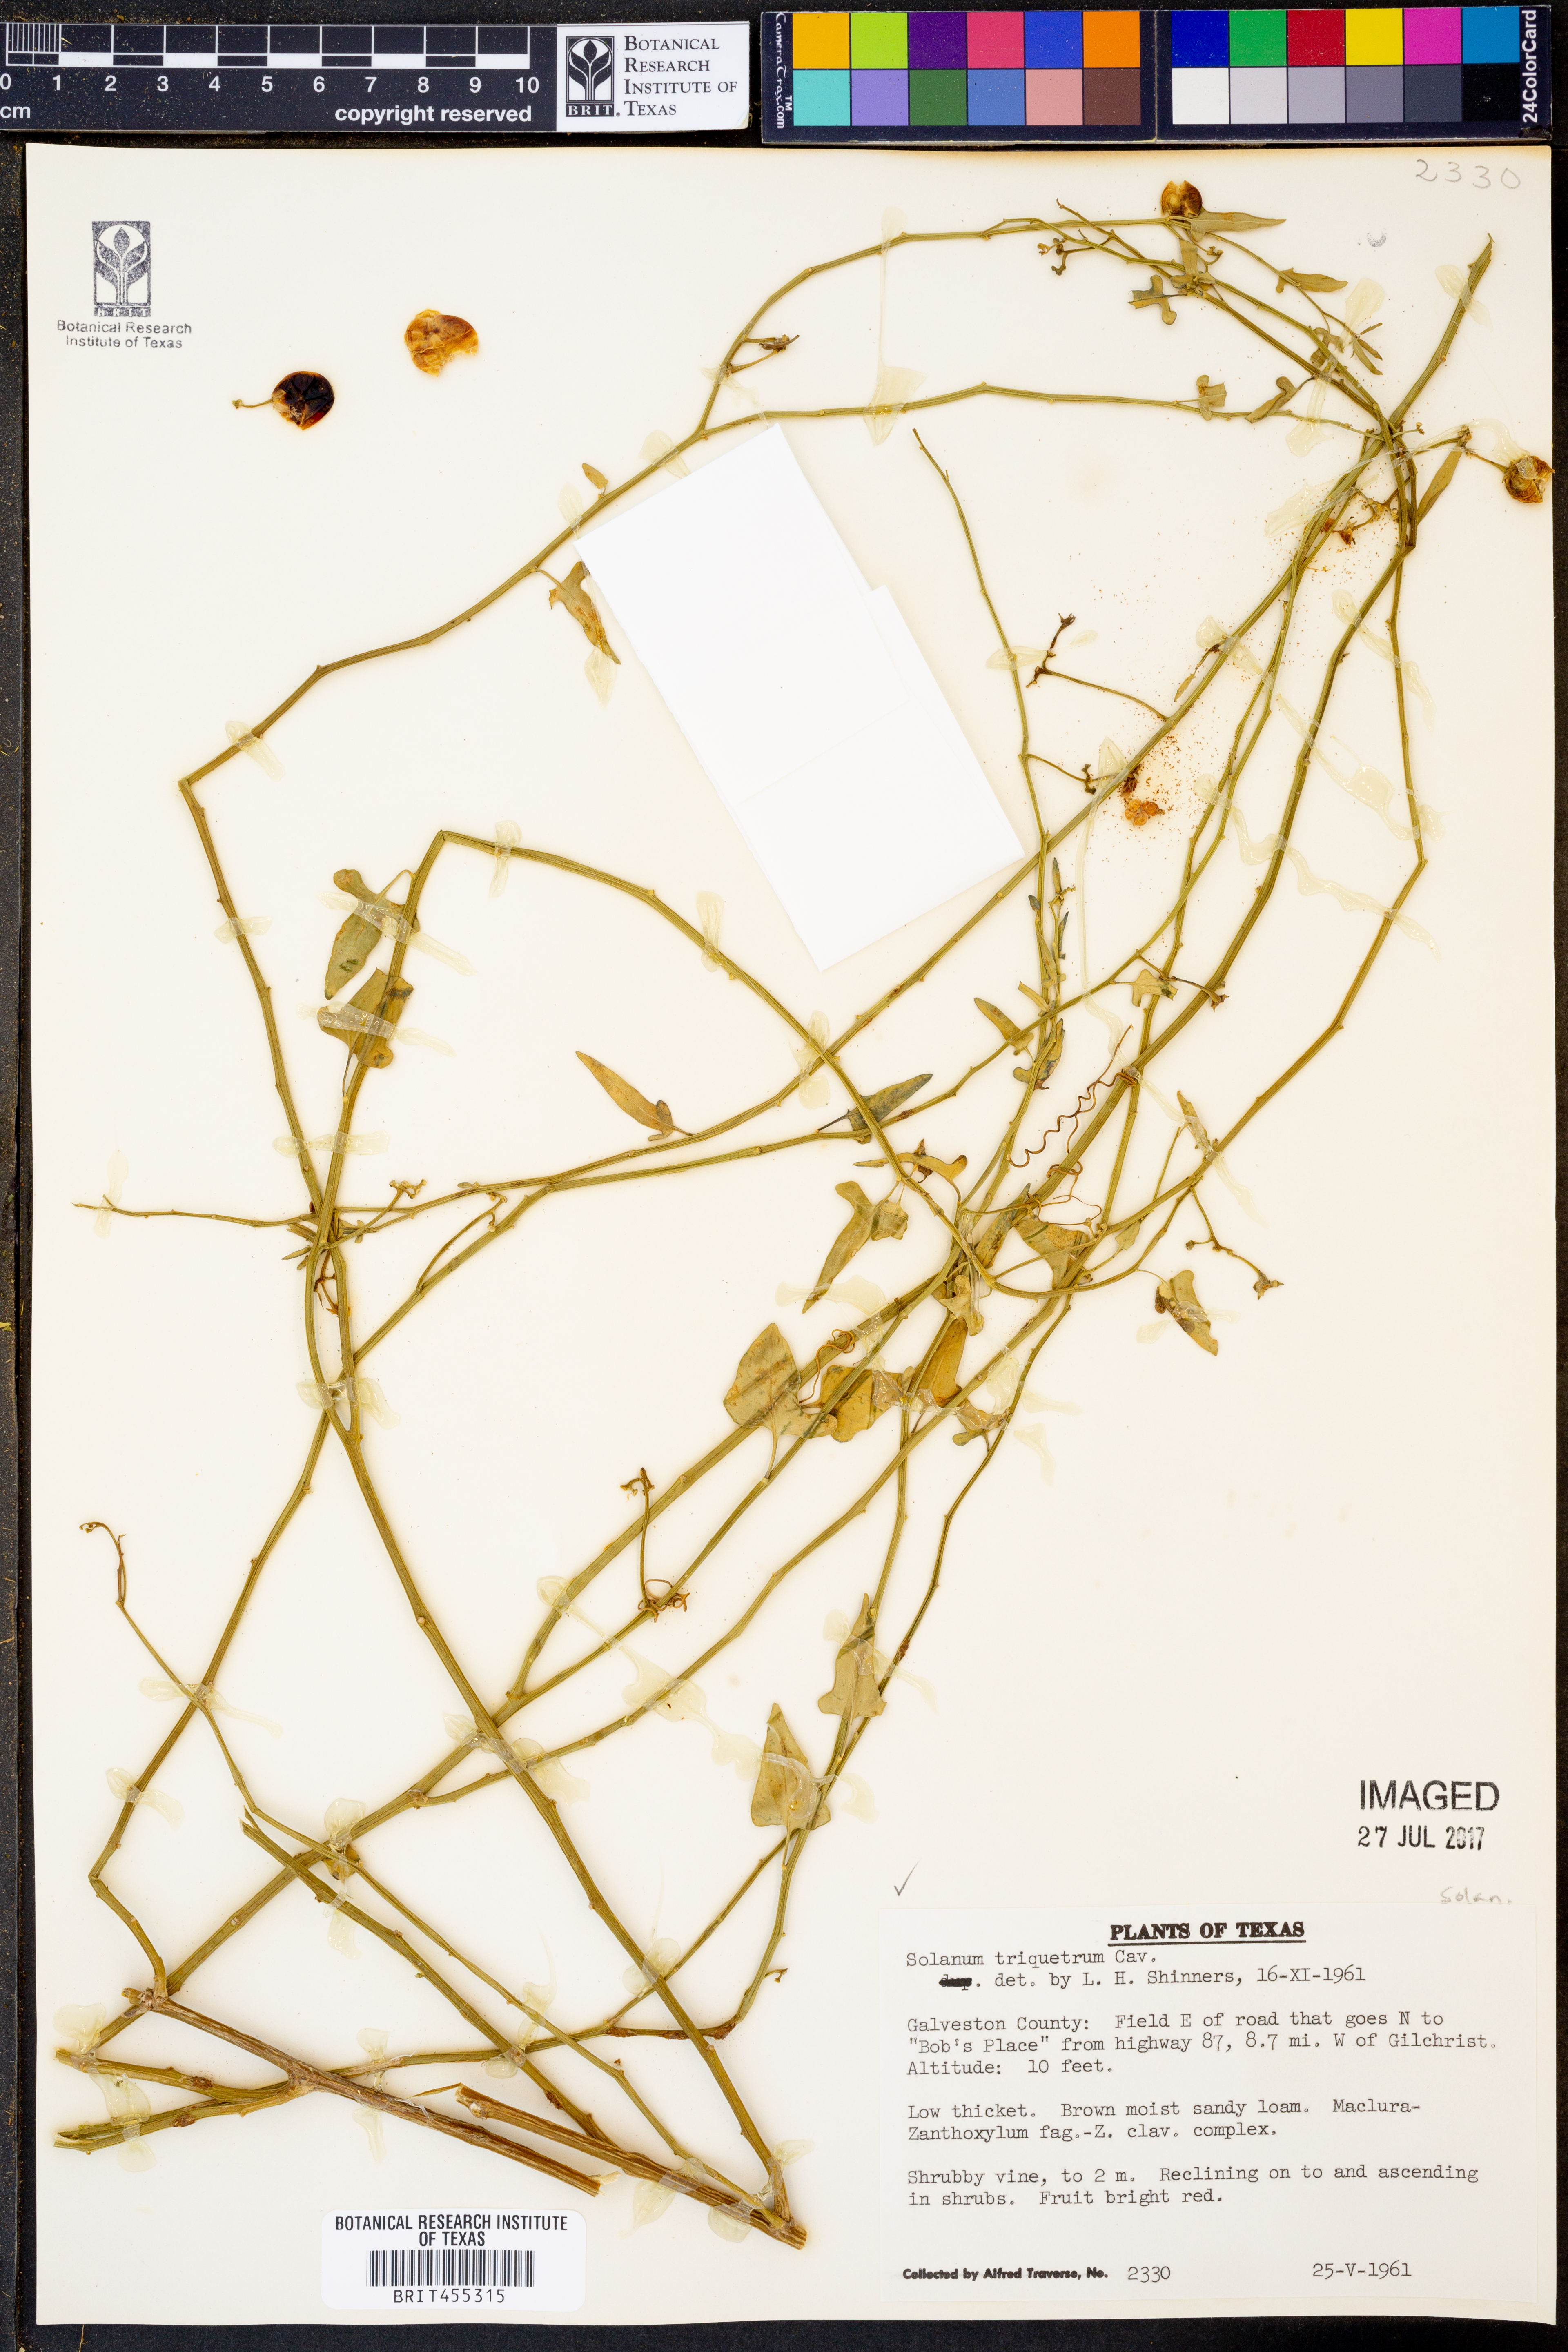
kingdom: Plantae
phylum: Tracheophyta
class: Magnoliopsida
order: Solanales
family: Solanaceae
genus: Solanum
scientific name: Solanum triquetrum
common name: Texas nightshade
